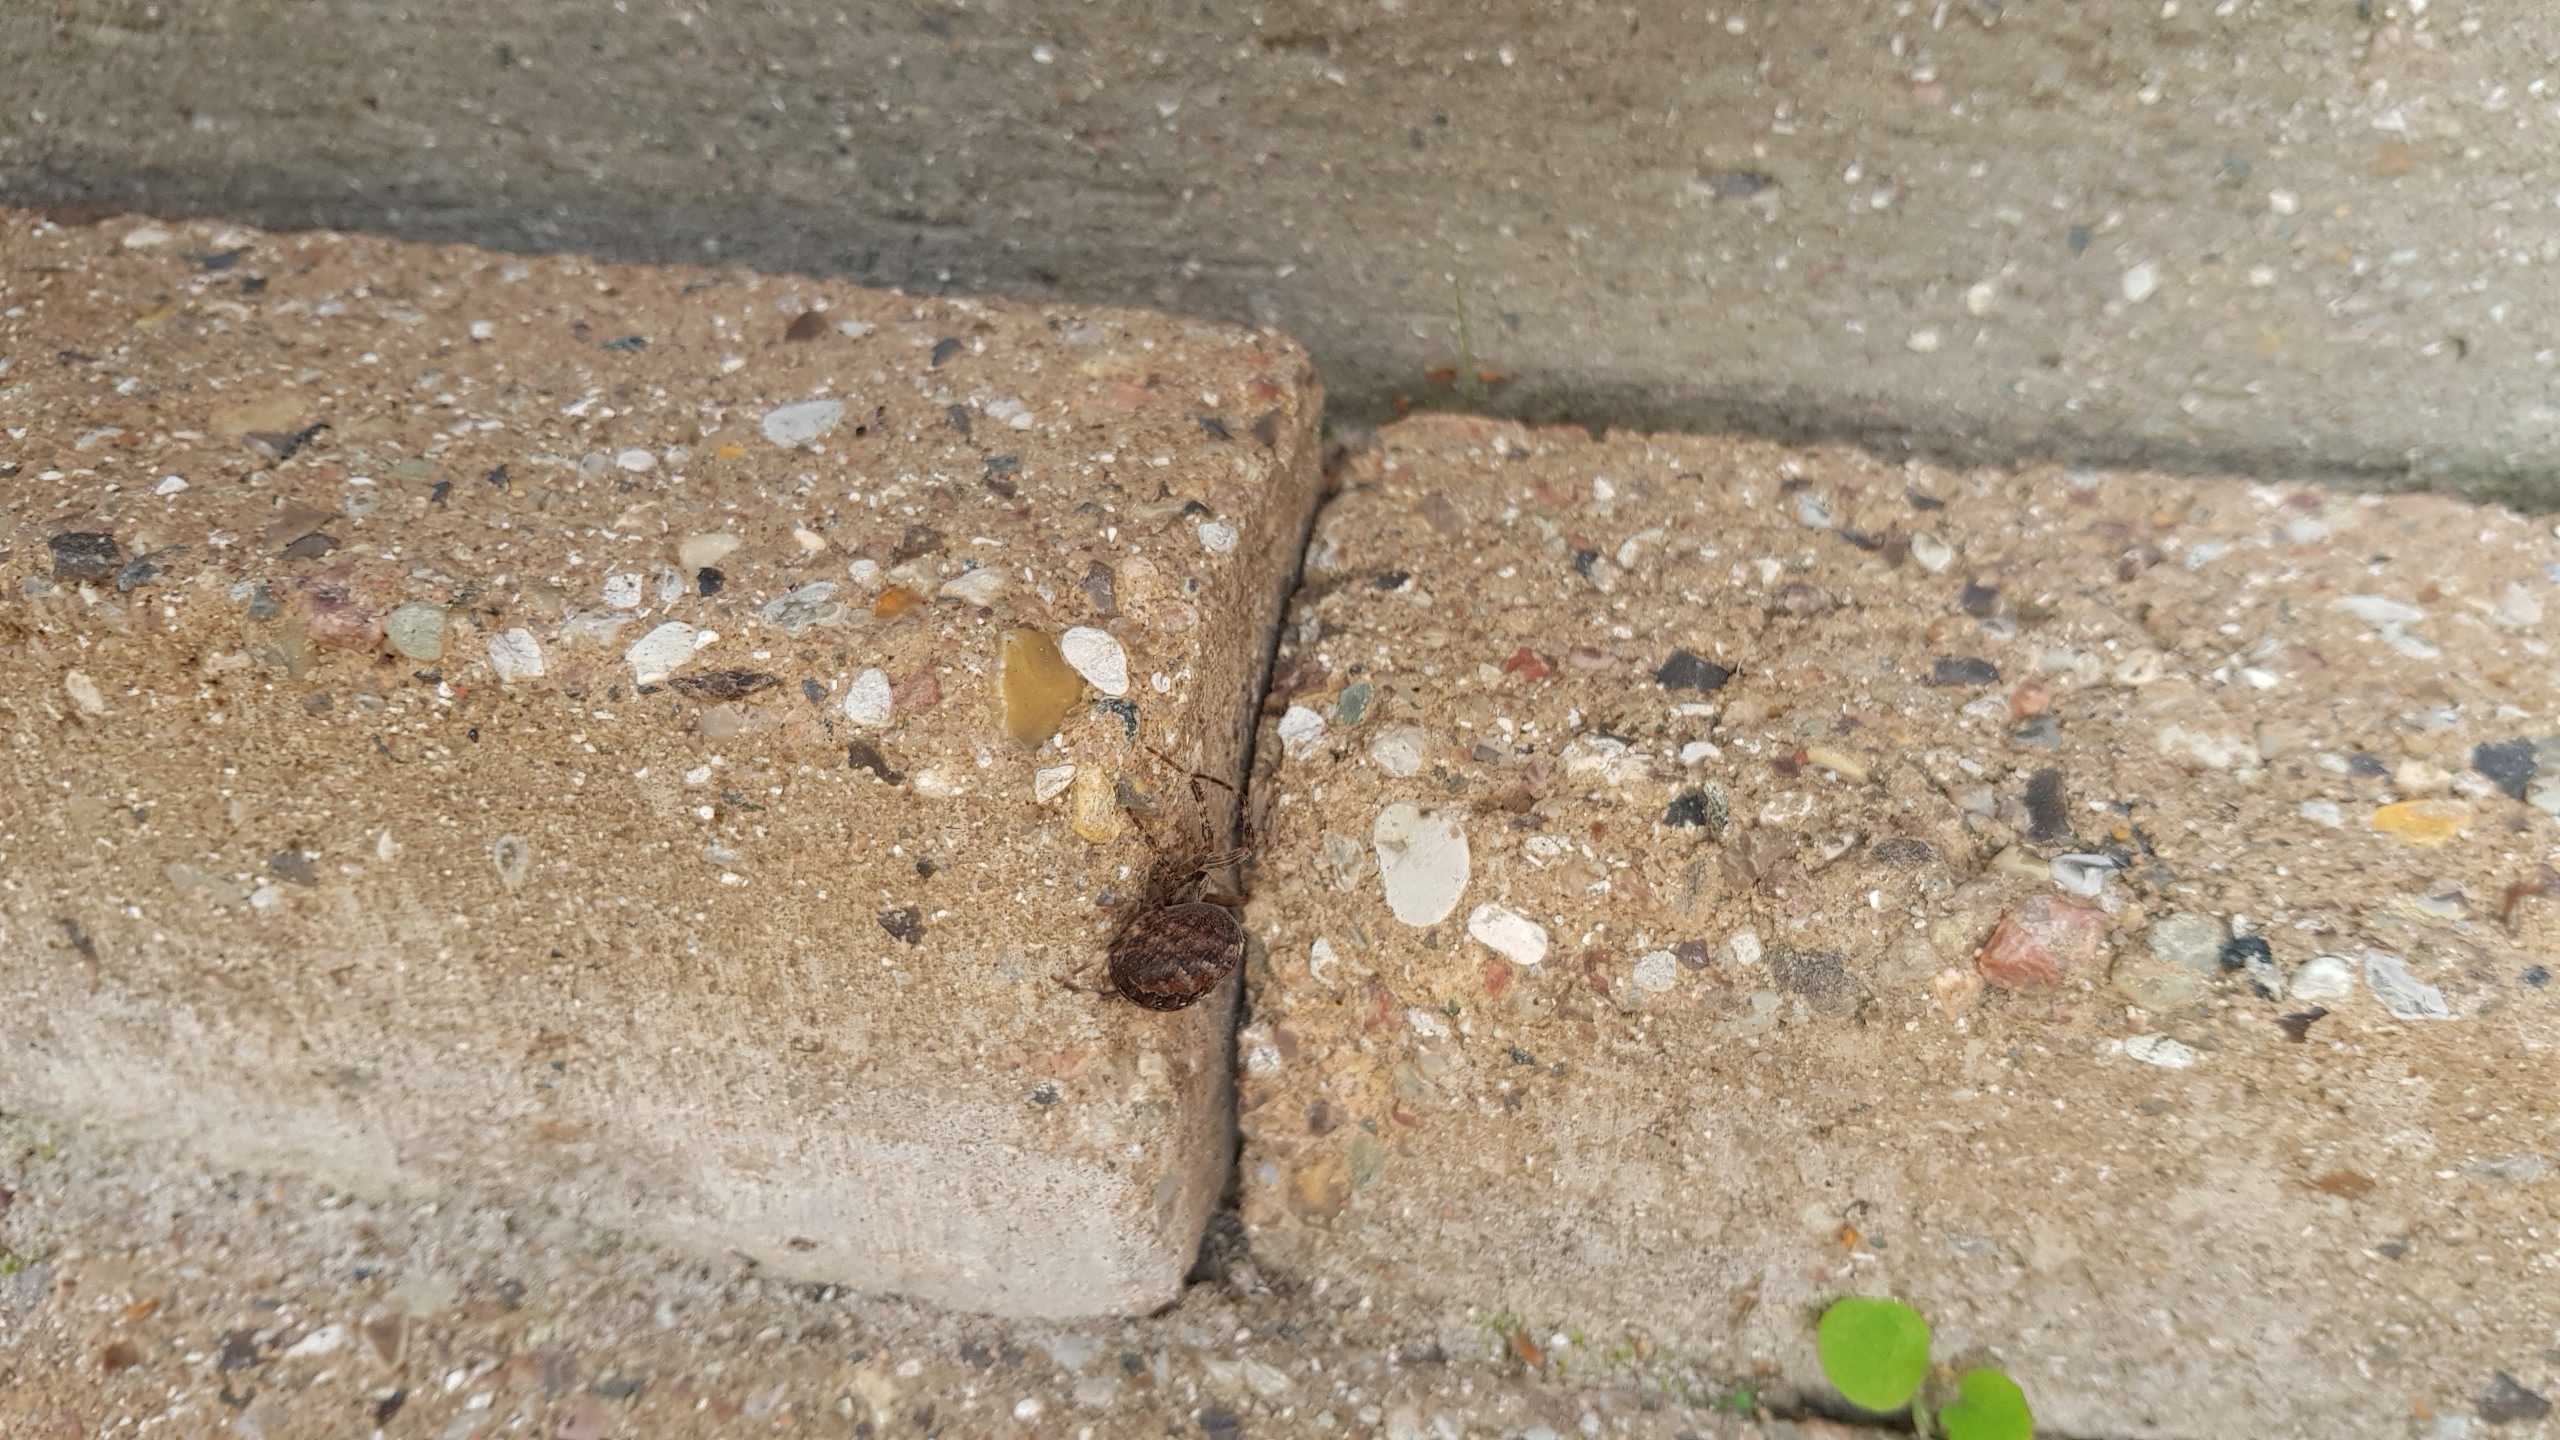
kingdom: Animalia
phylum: Arthropoda
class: Arachnida
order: Araneae
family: Araneidae
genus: Araneus
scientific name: Araneus diadematus
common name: Korsedderkop
